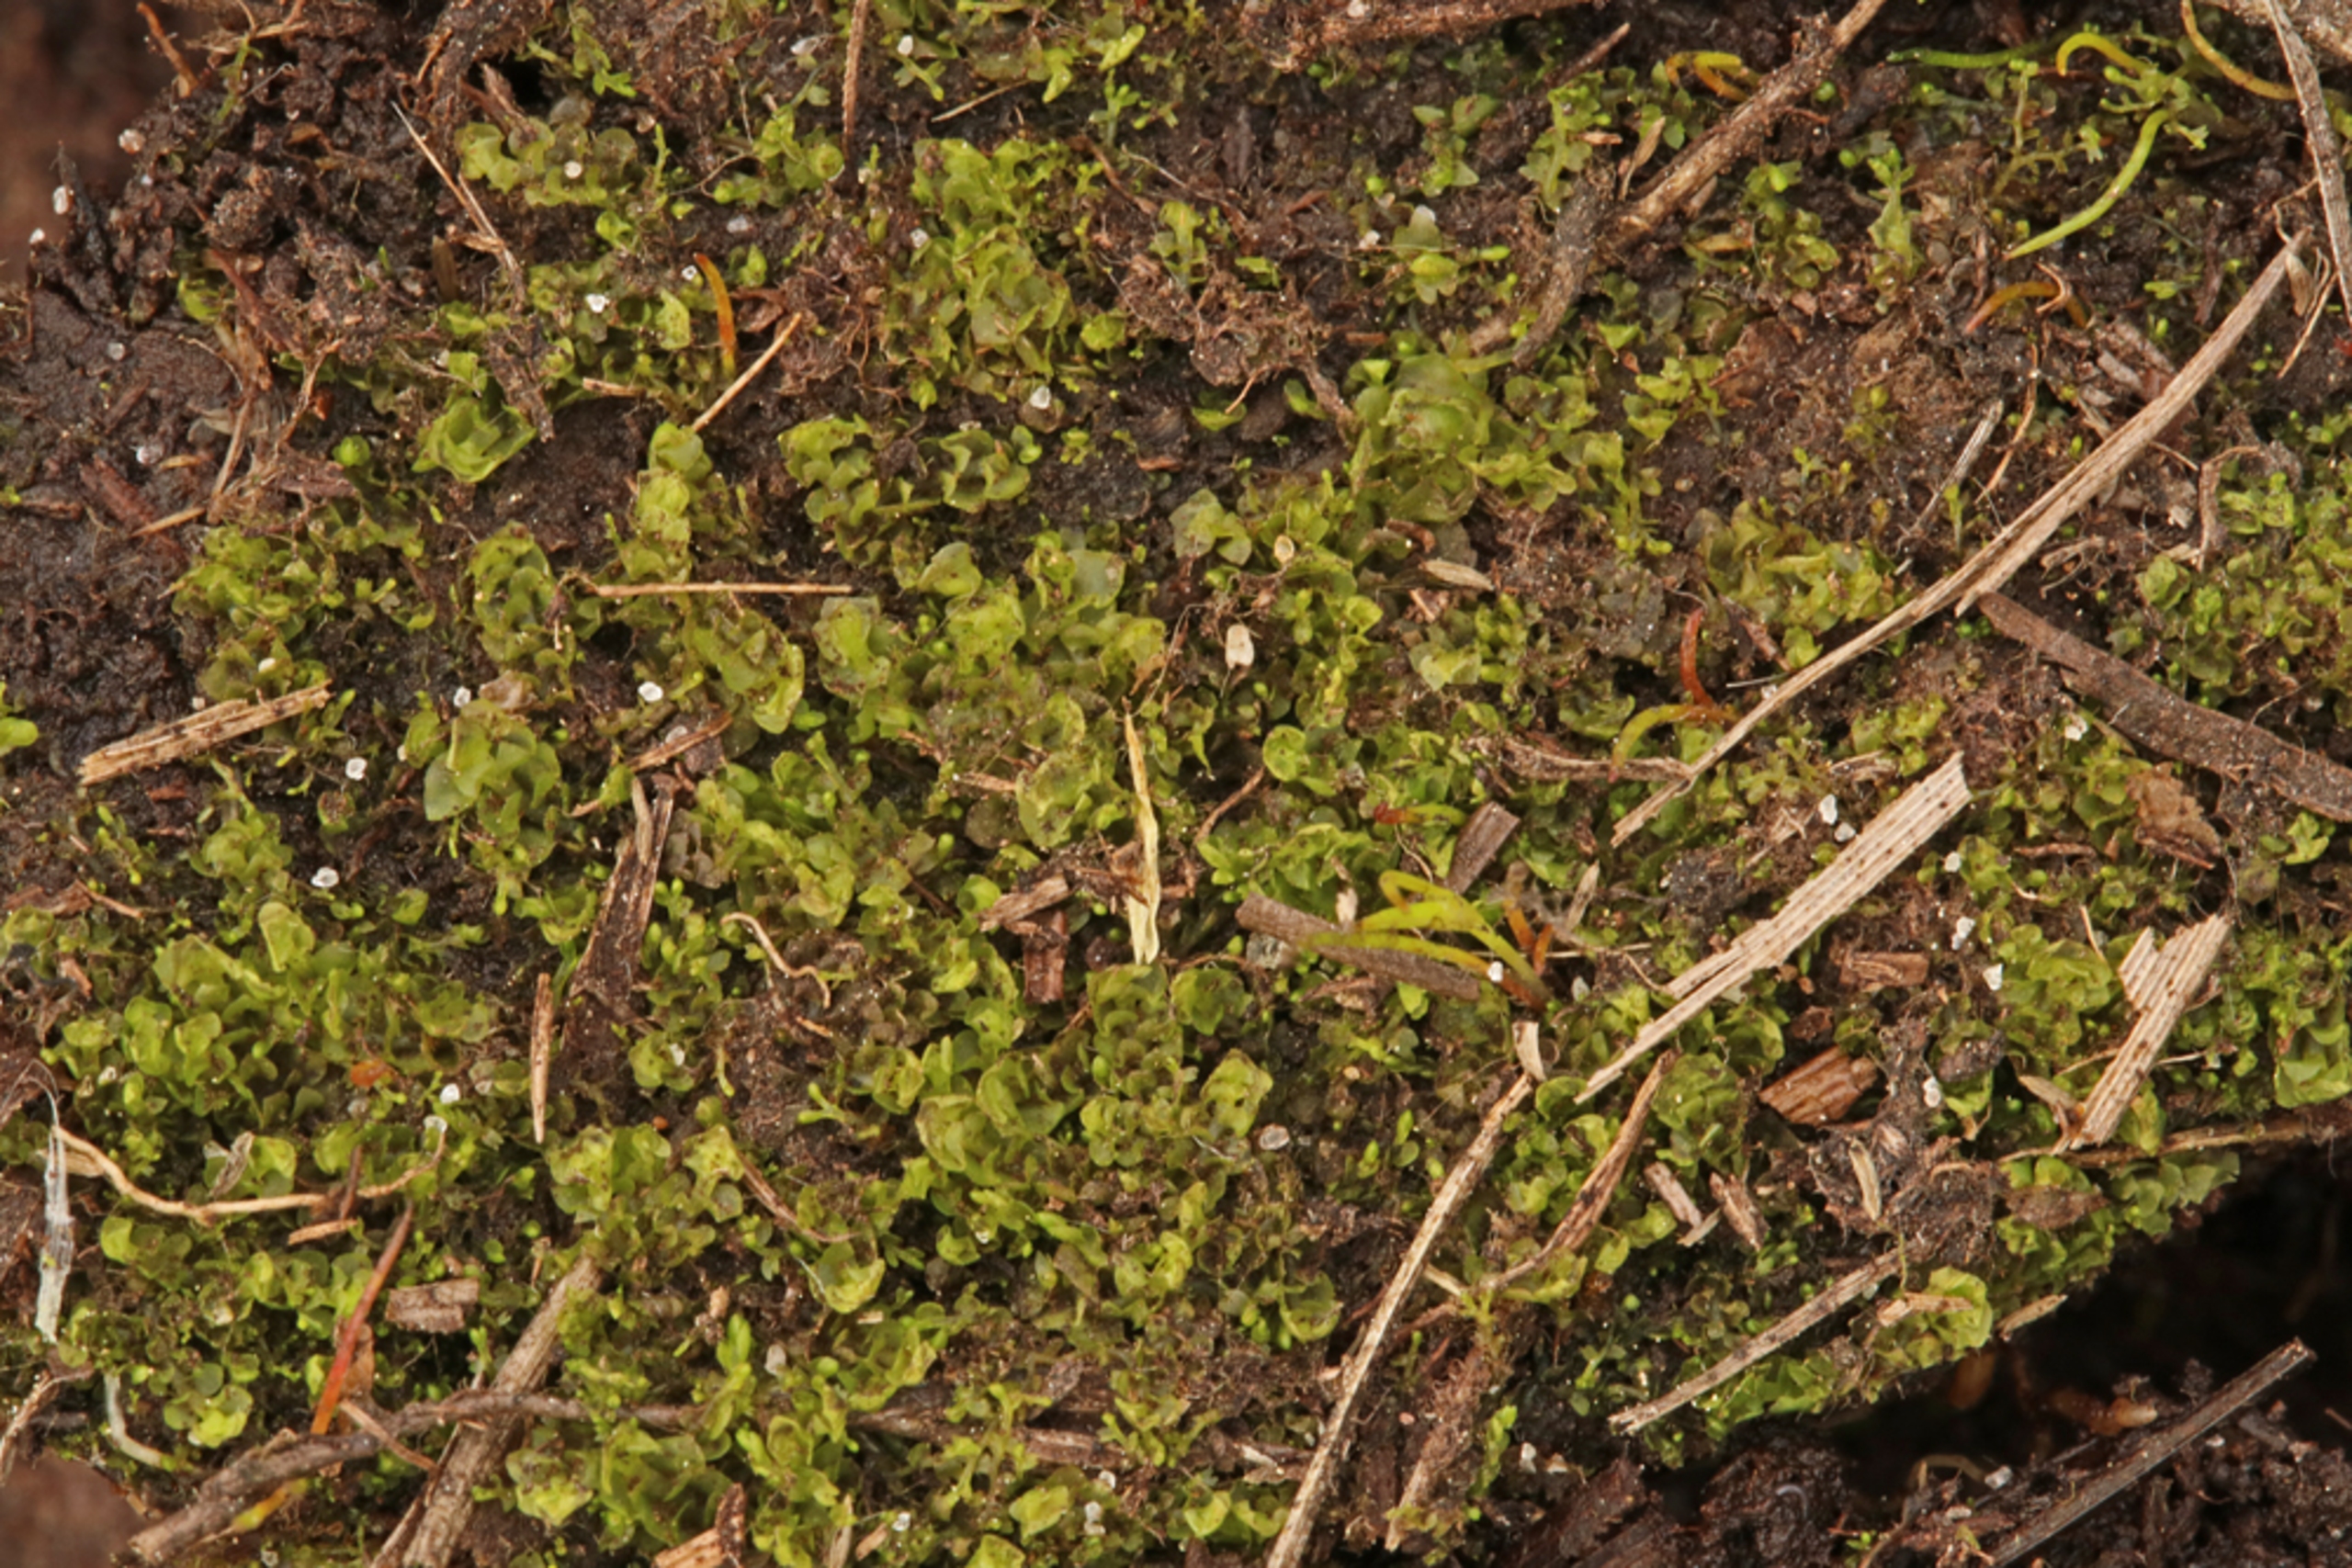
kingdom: Plantae
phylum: Marchantiophyta
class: Jungermanniopsida
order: Jungermanniales
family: Scapaniaceae
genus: Scapania
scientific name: Scapania irrigua
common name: Kær-tveblad
